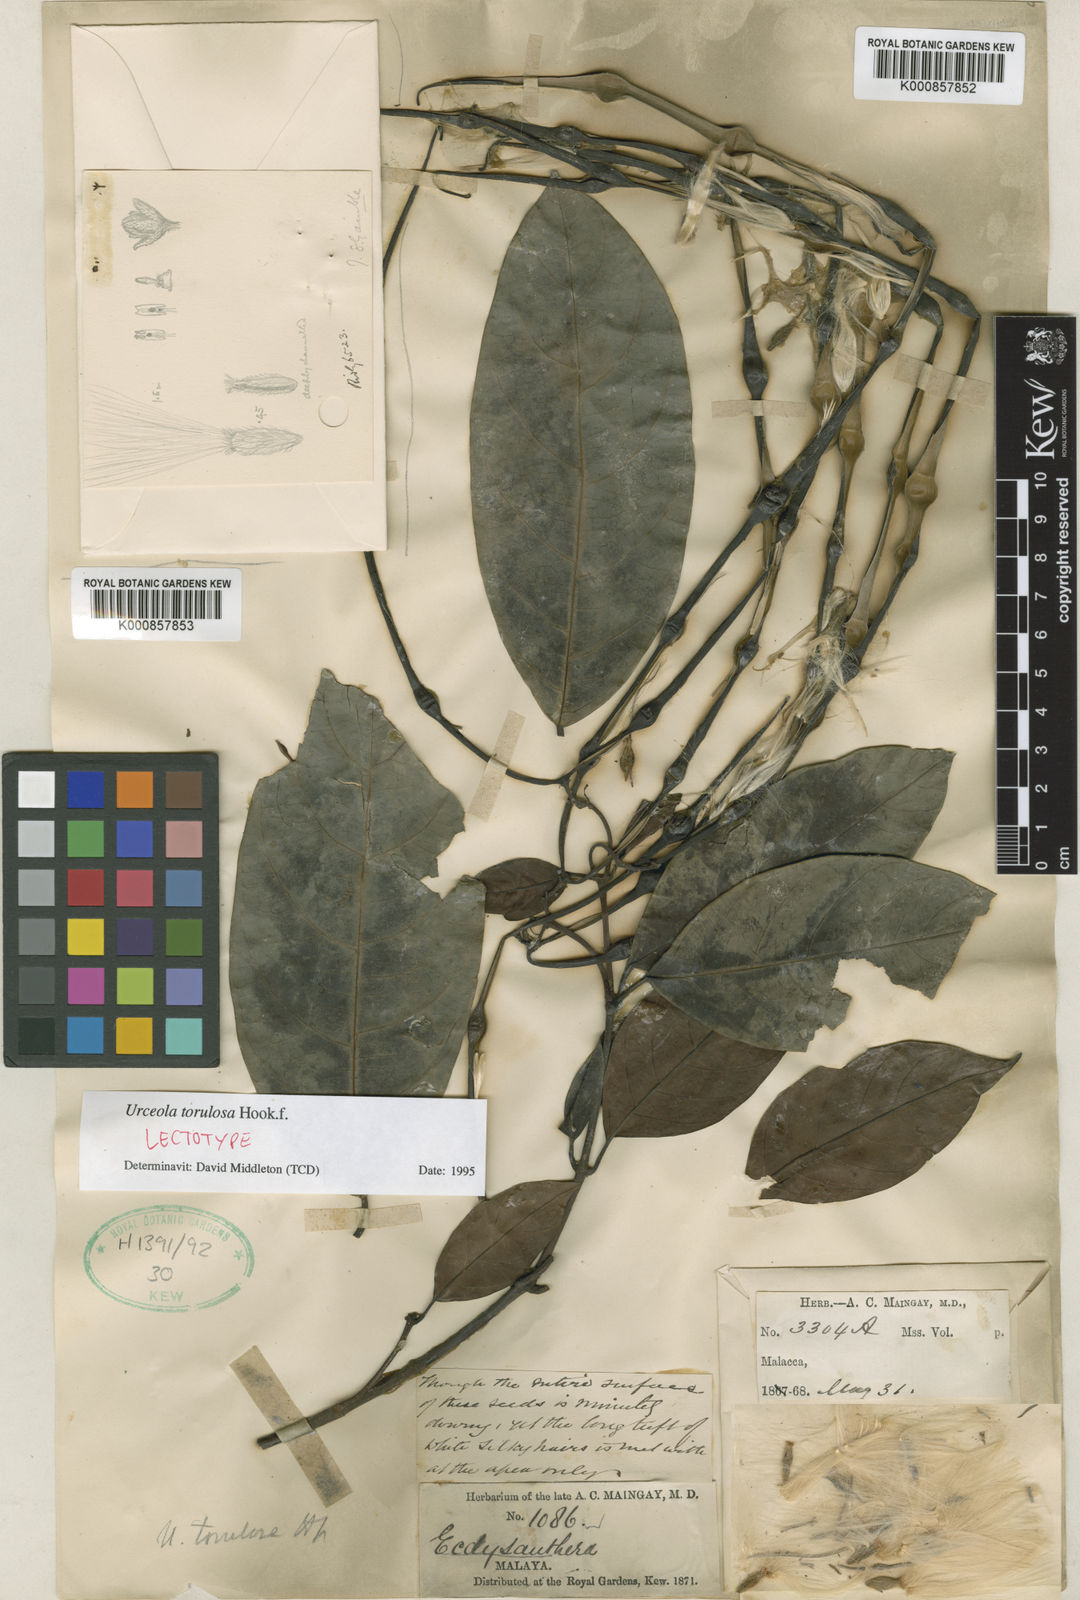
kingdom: Plantae
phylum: Tracheophyta
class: Magnoliopsida
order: Gentianales
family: Apocynaceae
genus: Urceola
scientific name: Urceola torulosa
